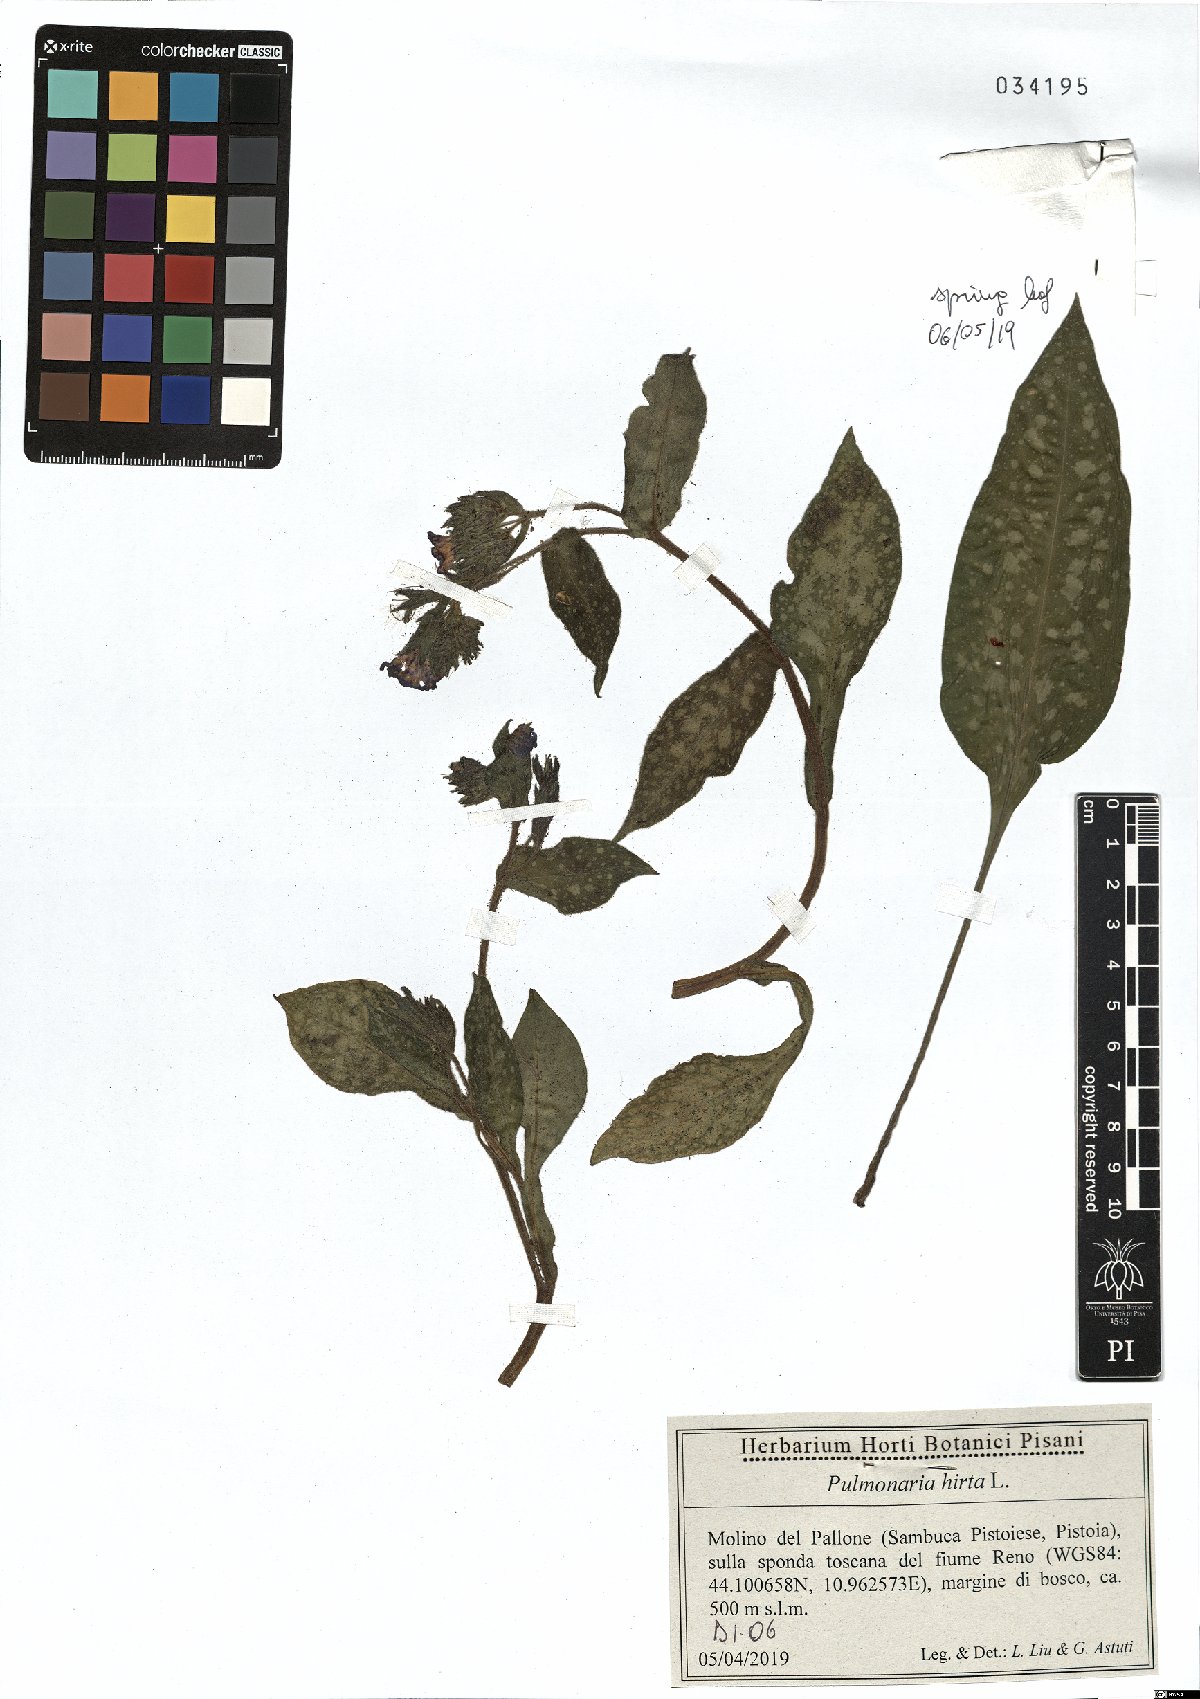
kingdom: Plantae
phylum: Tracheophyta
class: Magnoliopsida
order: Boraginales
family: Boraginaceae
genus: Pulmonaria
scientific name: Pulmonaria hirta
